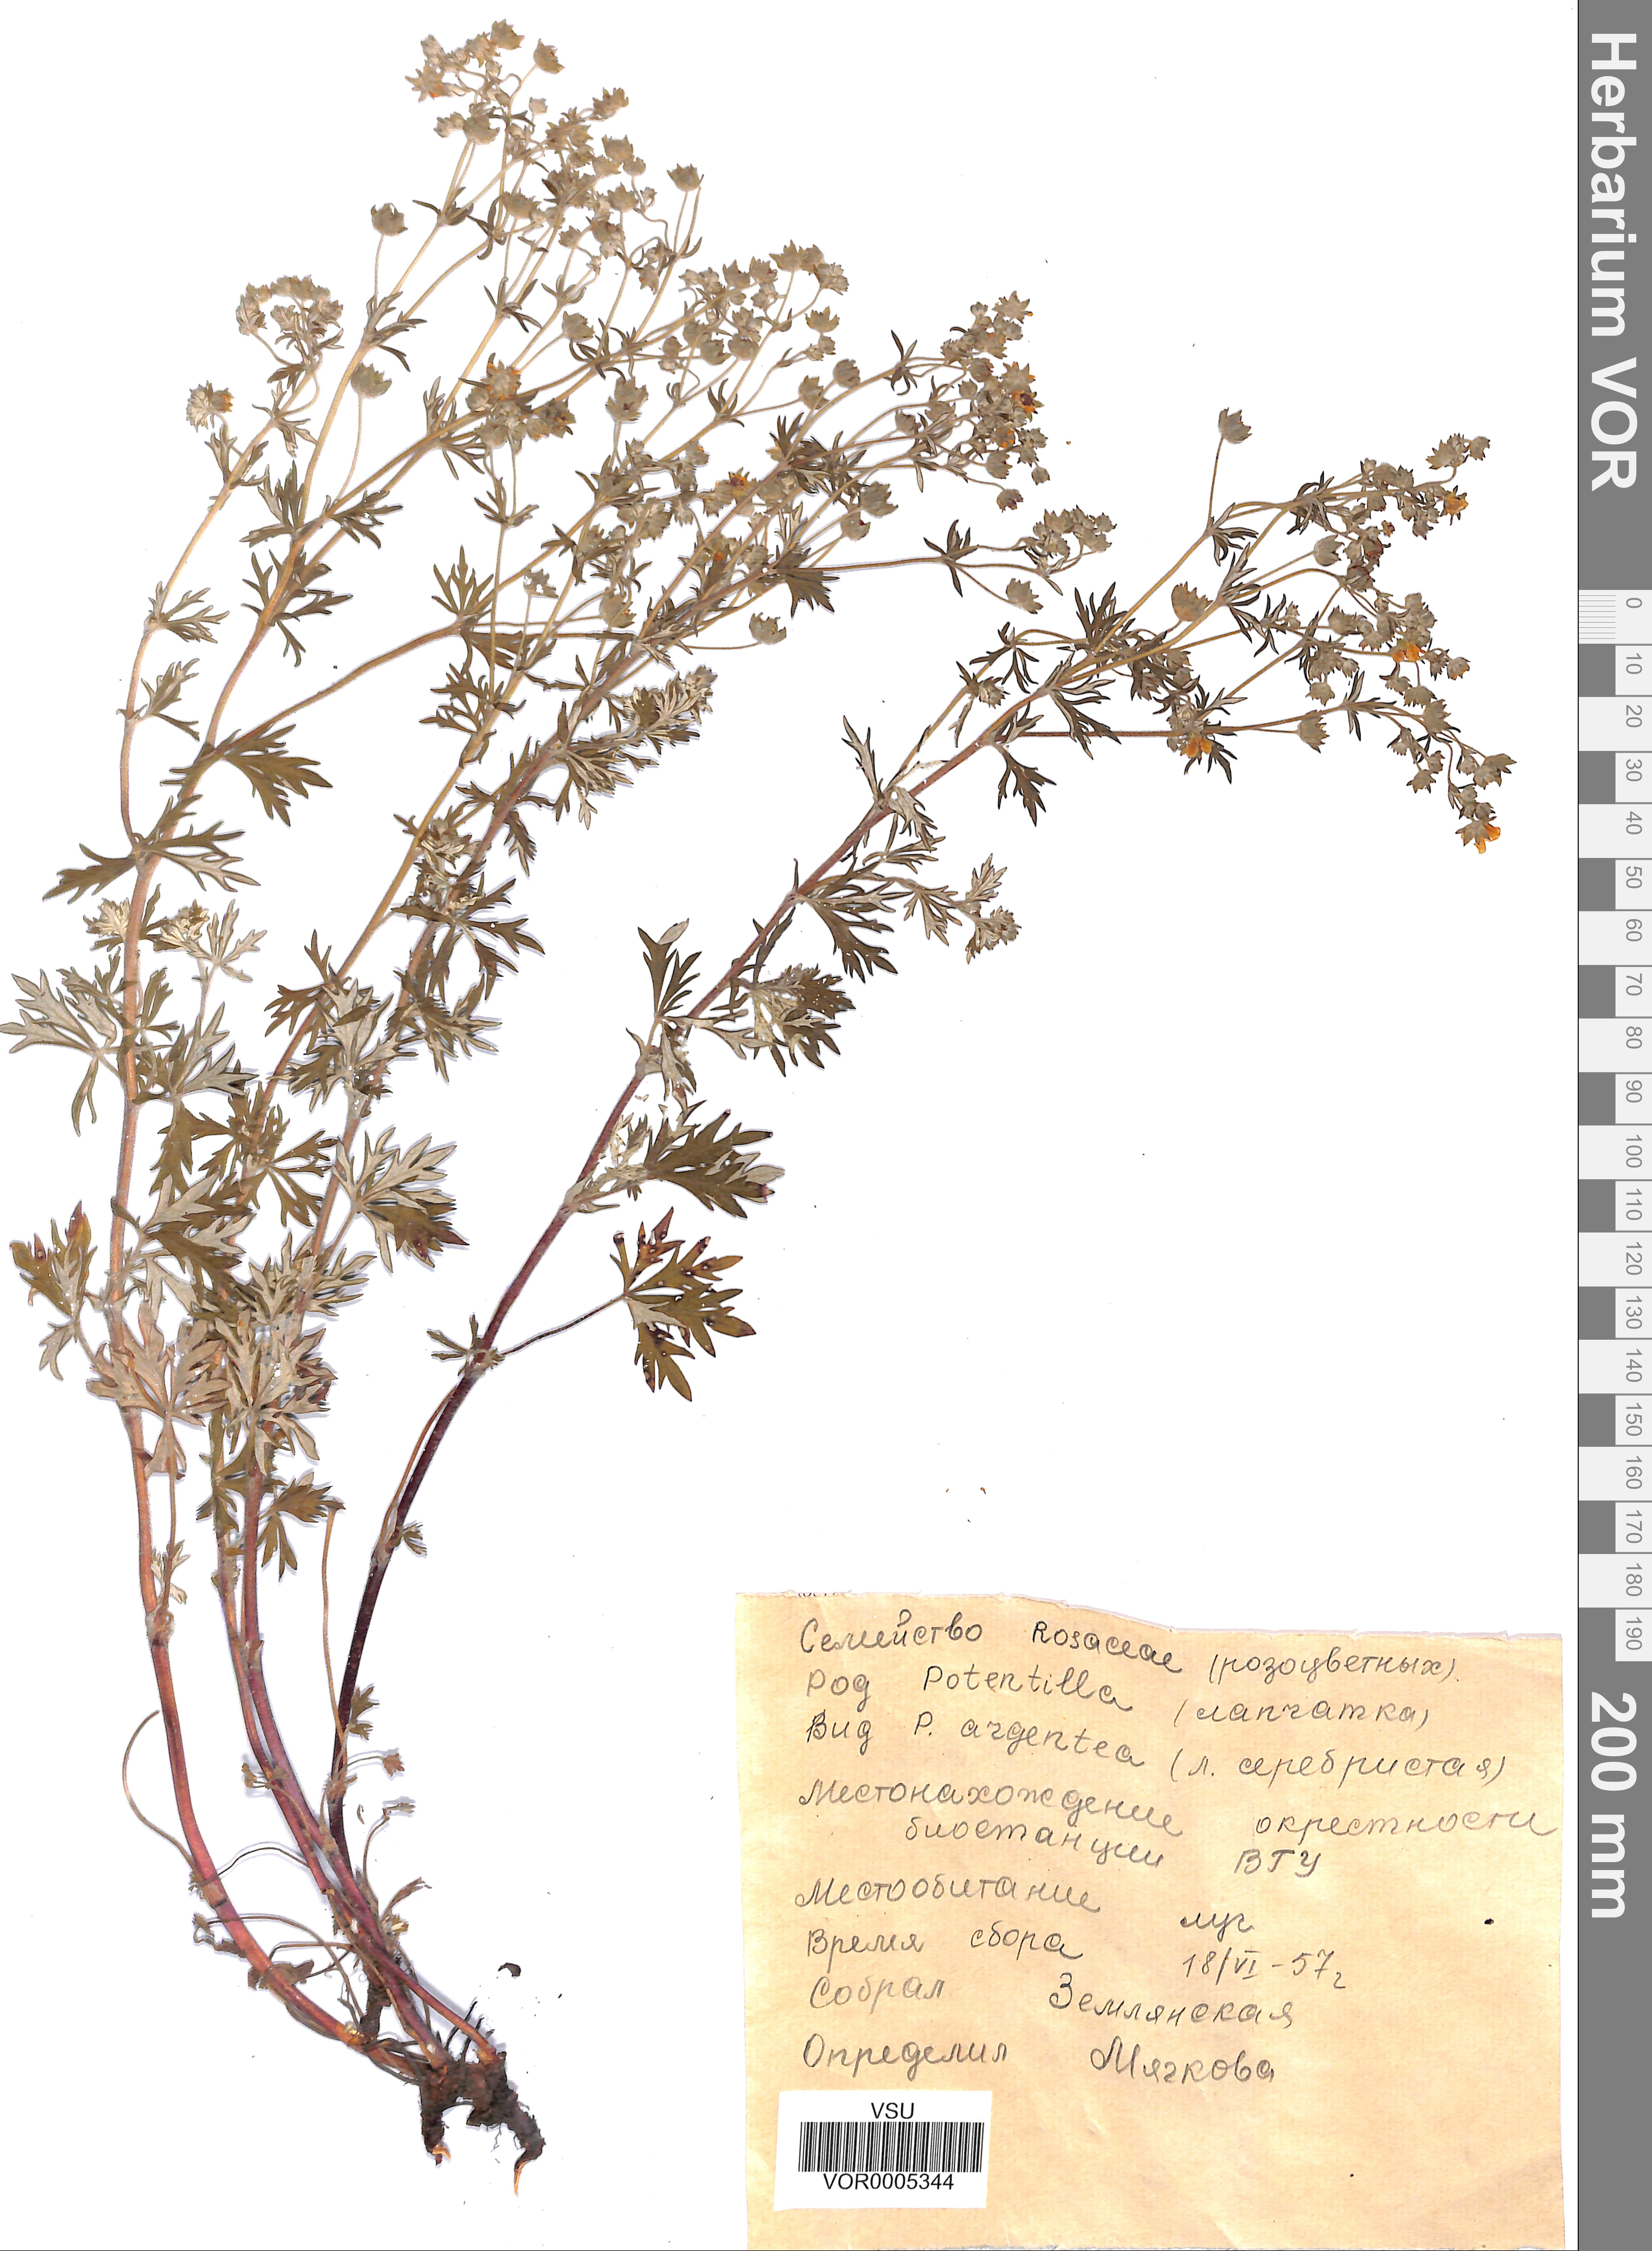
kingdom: Plantae
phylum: Tracheophyta
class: Magnoliopsida
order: Rosales
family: Rosaceae
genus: Potentilla
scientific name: Potentilla argentea
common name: Hoary cinquefoil
